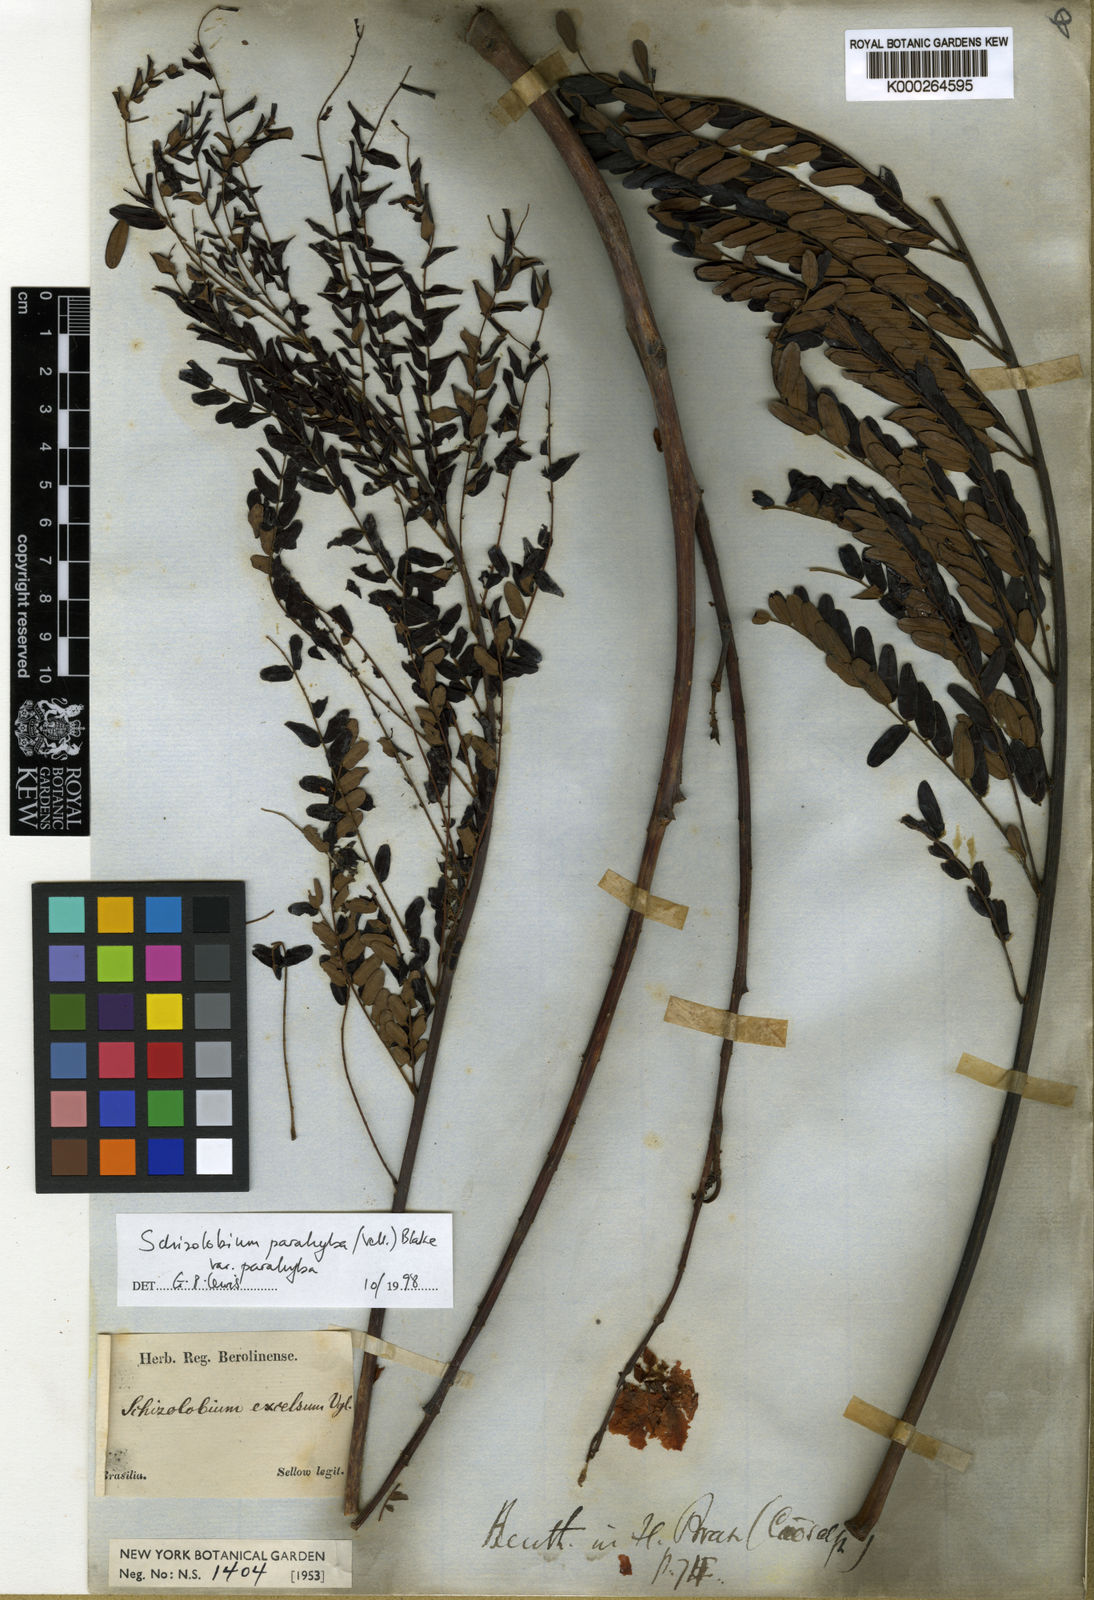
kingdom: Plantae
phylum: Tracheophyta
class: Magnoliopsida
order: Fabales
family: Fabaceae
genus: Schizolobium
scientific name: Schizolobium parahyba
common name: Brazilian firetree
